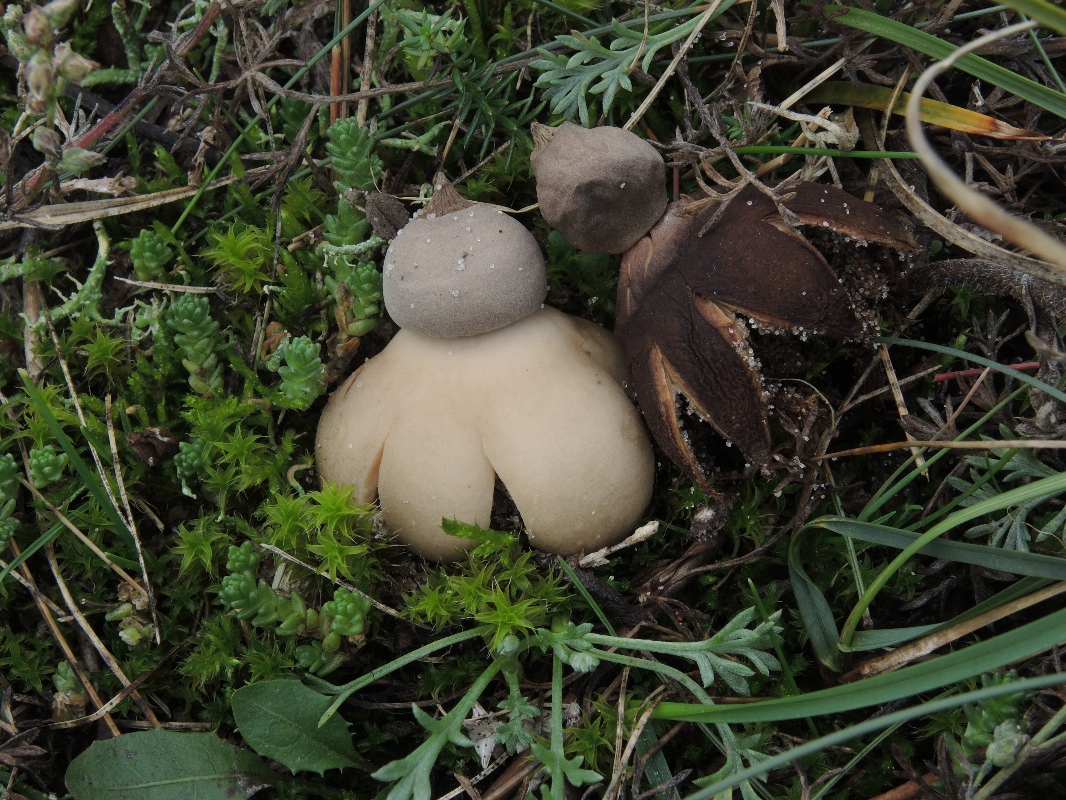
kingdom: Fungi
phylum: Basidiomycota
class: Agaricomycetes
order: Geastrales
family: Geastraceae
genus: Geastrum
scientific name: Geastrum striatum
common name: dværg-stjernebold
